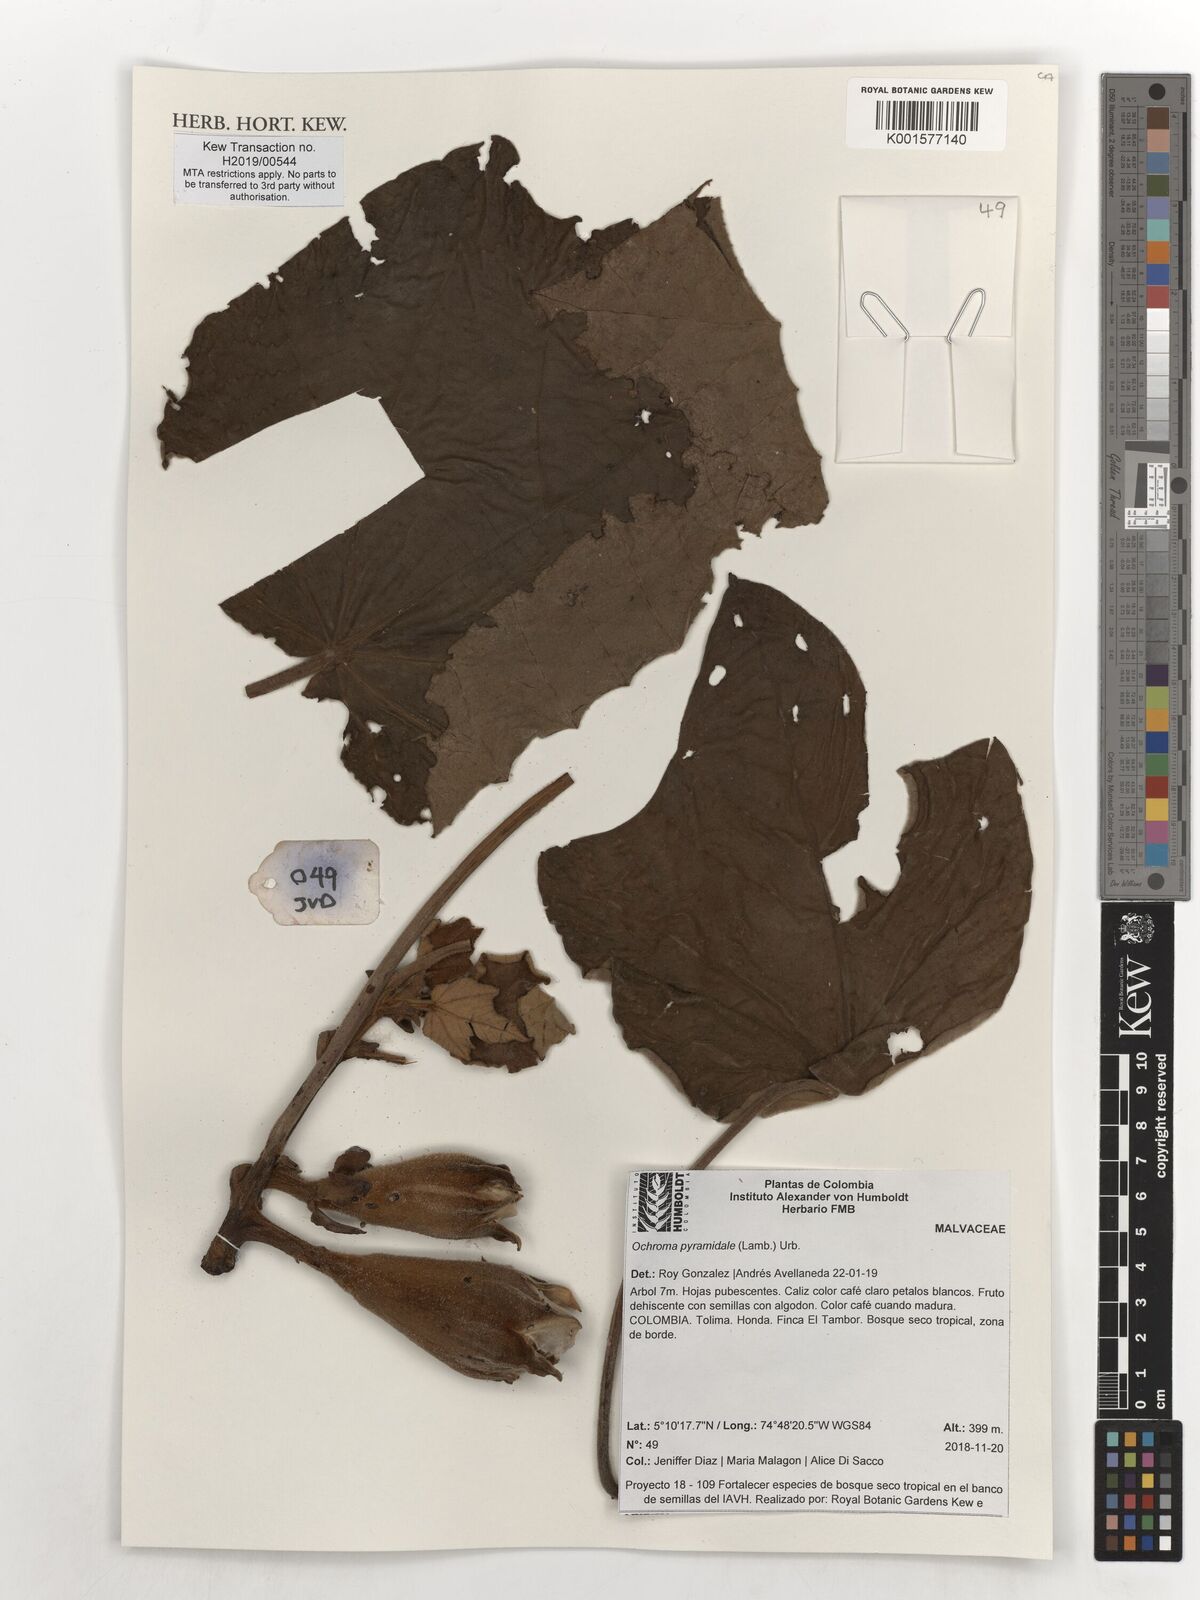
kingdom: Plantae
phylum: Tracheophyta
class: Magnoliopsida
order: Malvales
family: Malvaceae
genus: Ochroma
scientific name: Ochroma pyramidale
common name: Balsa
